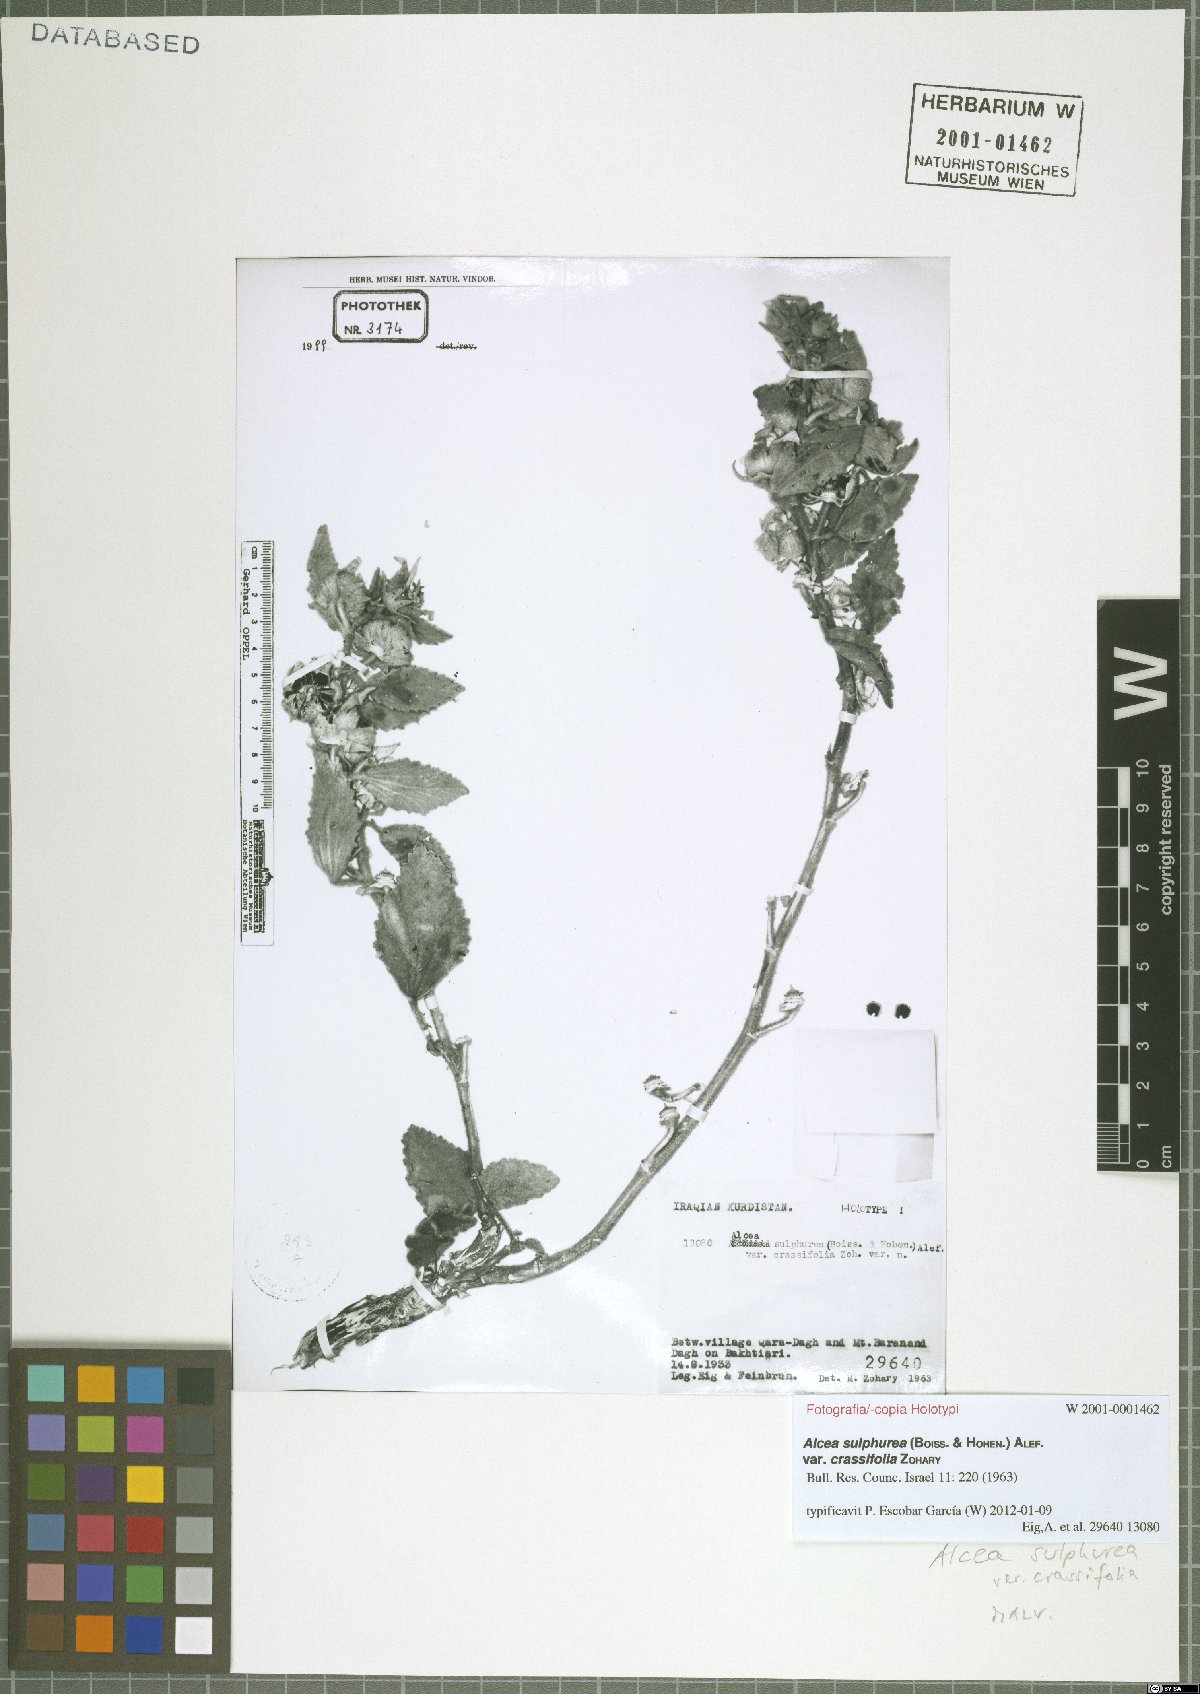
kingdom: Plantae
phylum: Tracheophyta
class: Magnoliopsida
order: Malvales
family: Malvaceae
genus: Alcea
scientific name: Alcea sulphurea
